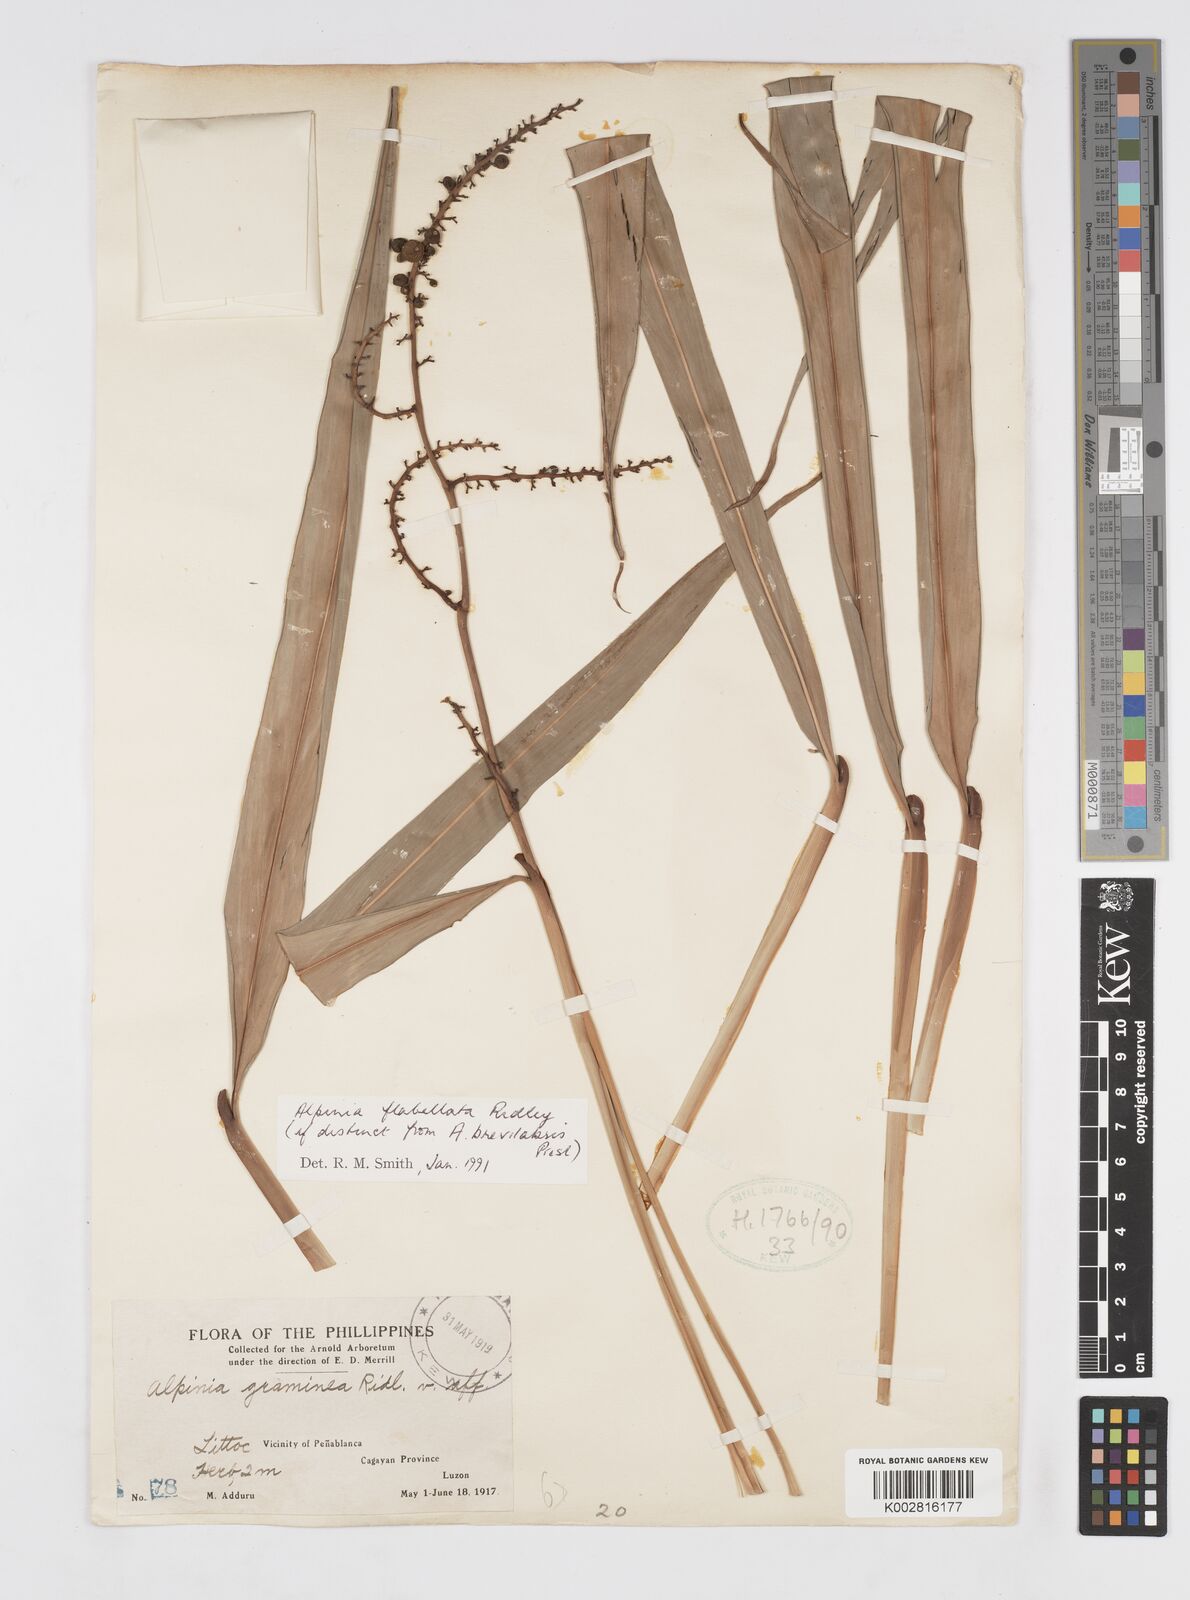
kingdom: Plantae
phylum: Tracheophyta
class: Liliopsida
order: Zingiberales
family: Zingiberaceae
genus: Alpinia
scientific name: Alpinia flabellata
